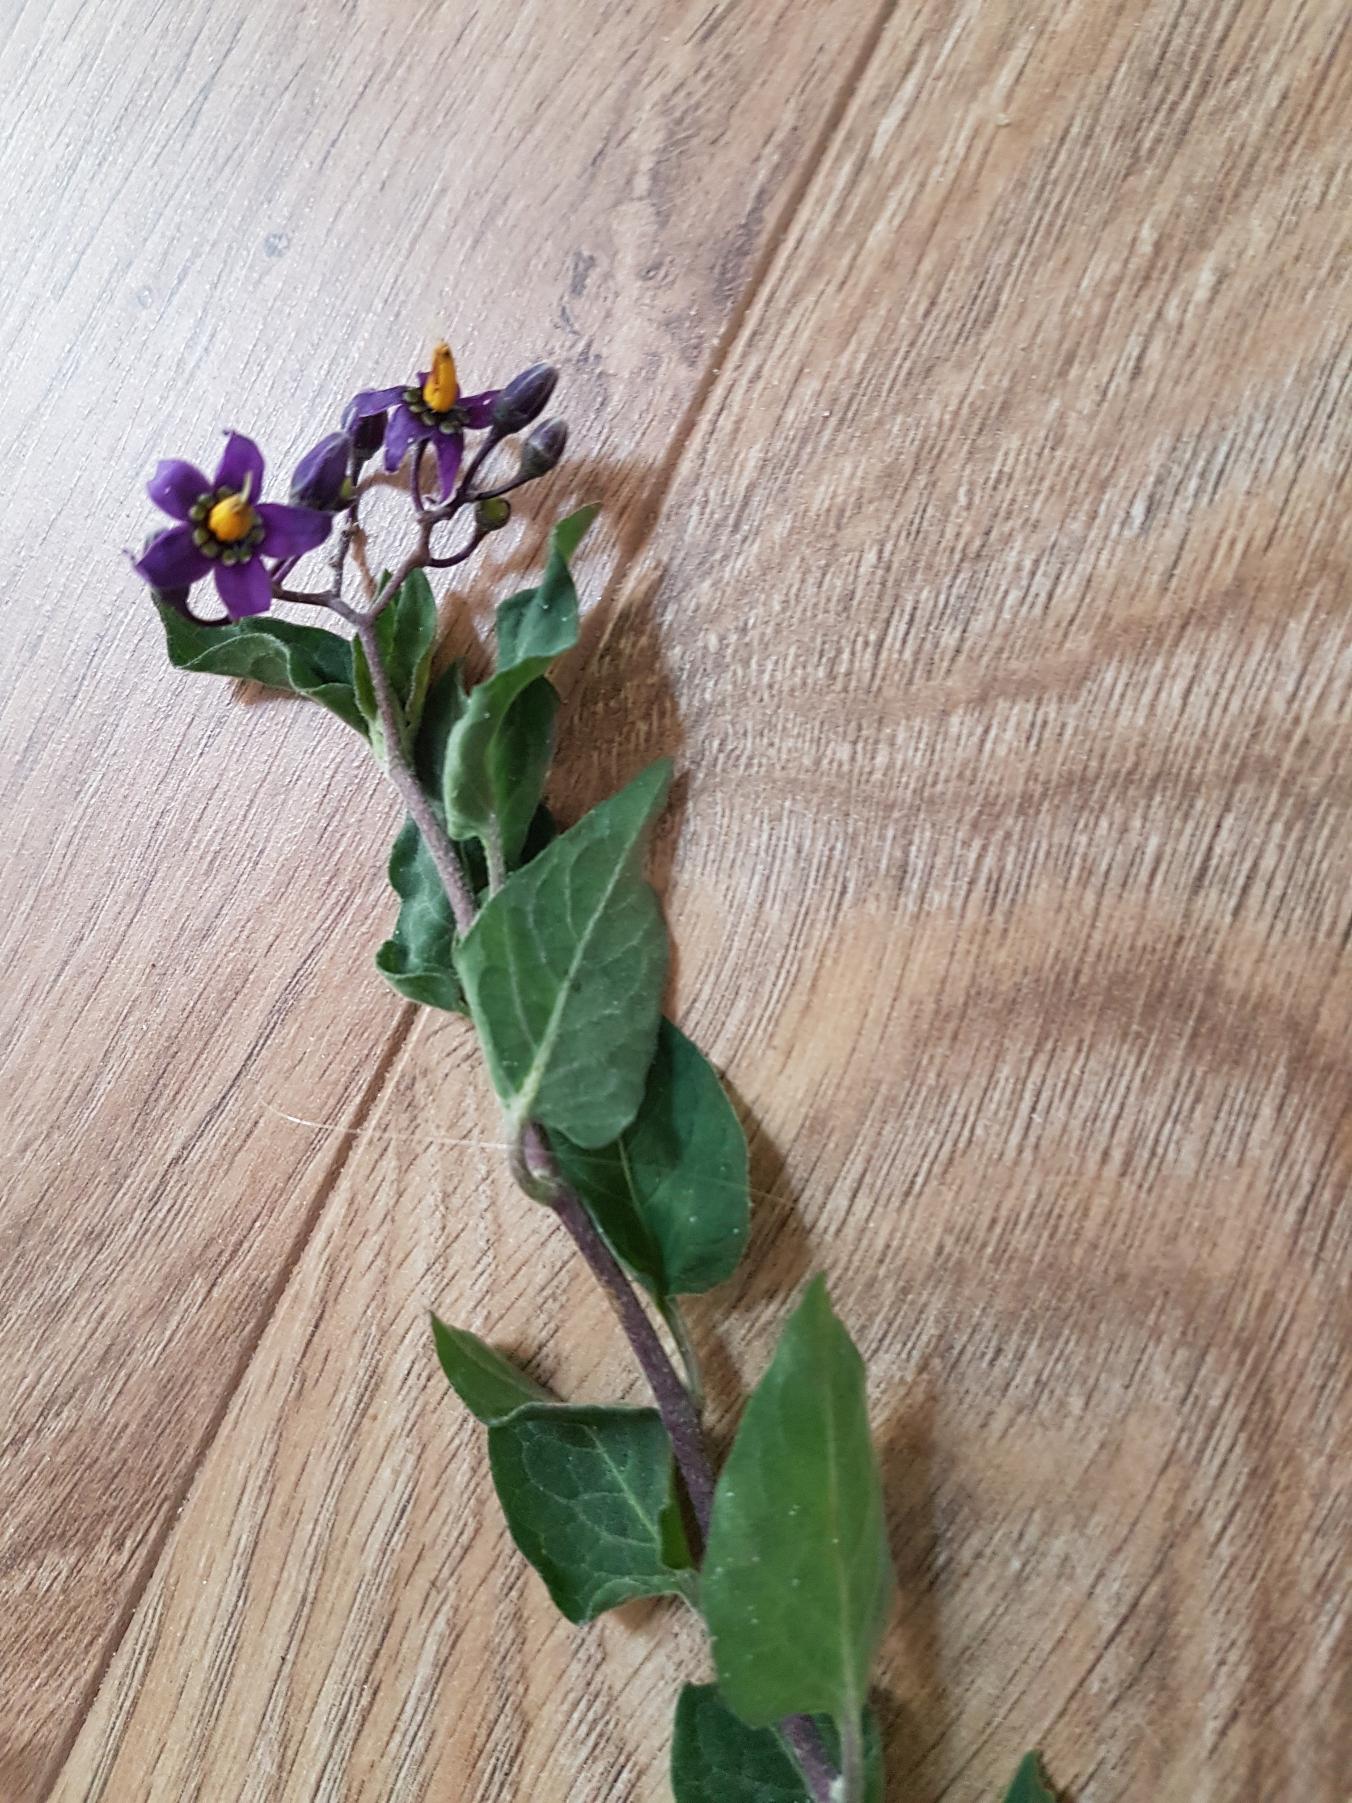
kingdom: Plantae
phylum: Tracheophyta
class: Magnoliopsida
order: Solanales
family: Solanaceae
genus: Solanum
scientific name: Solanum dulcamara
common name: Bittersød natskygge
